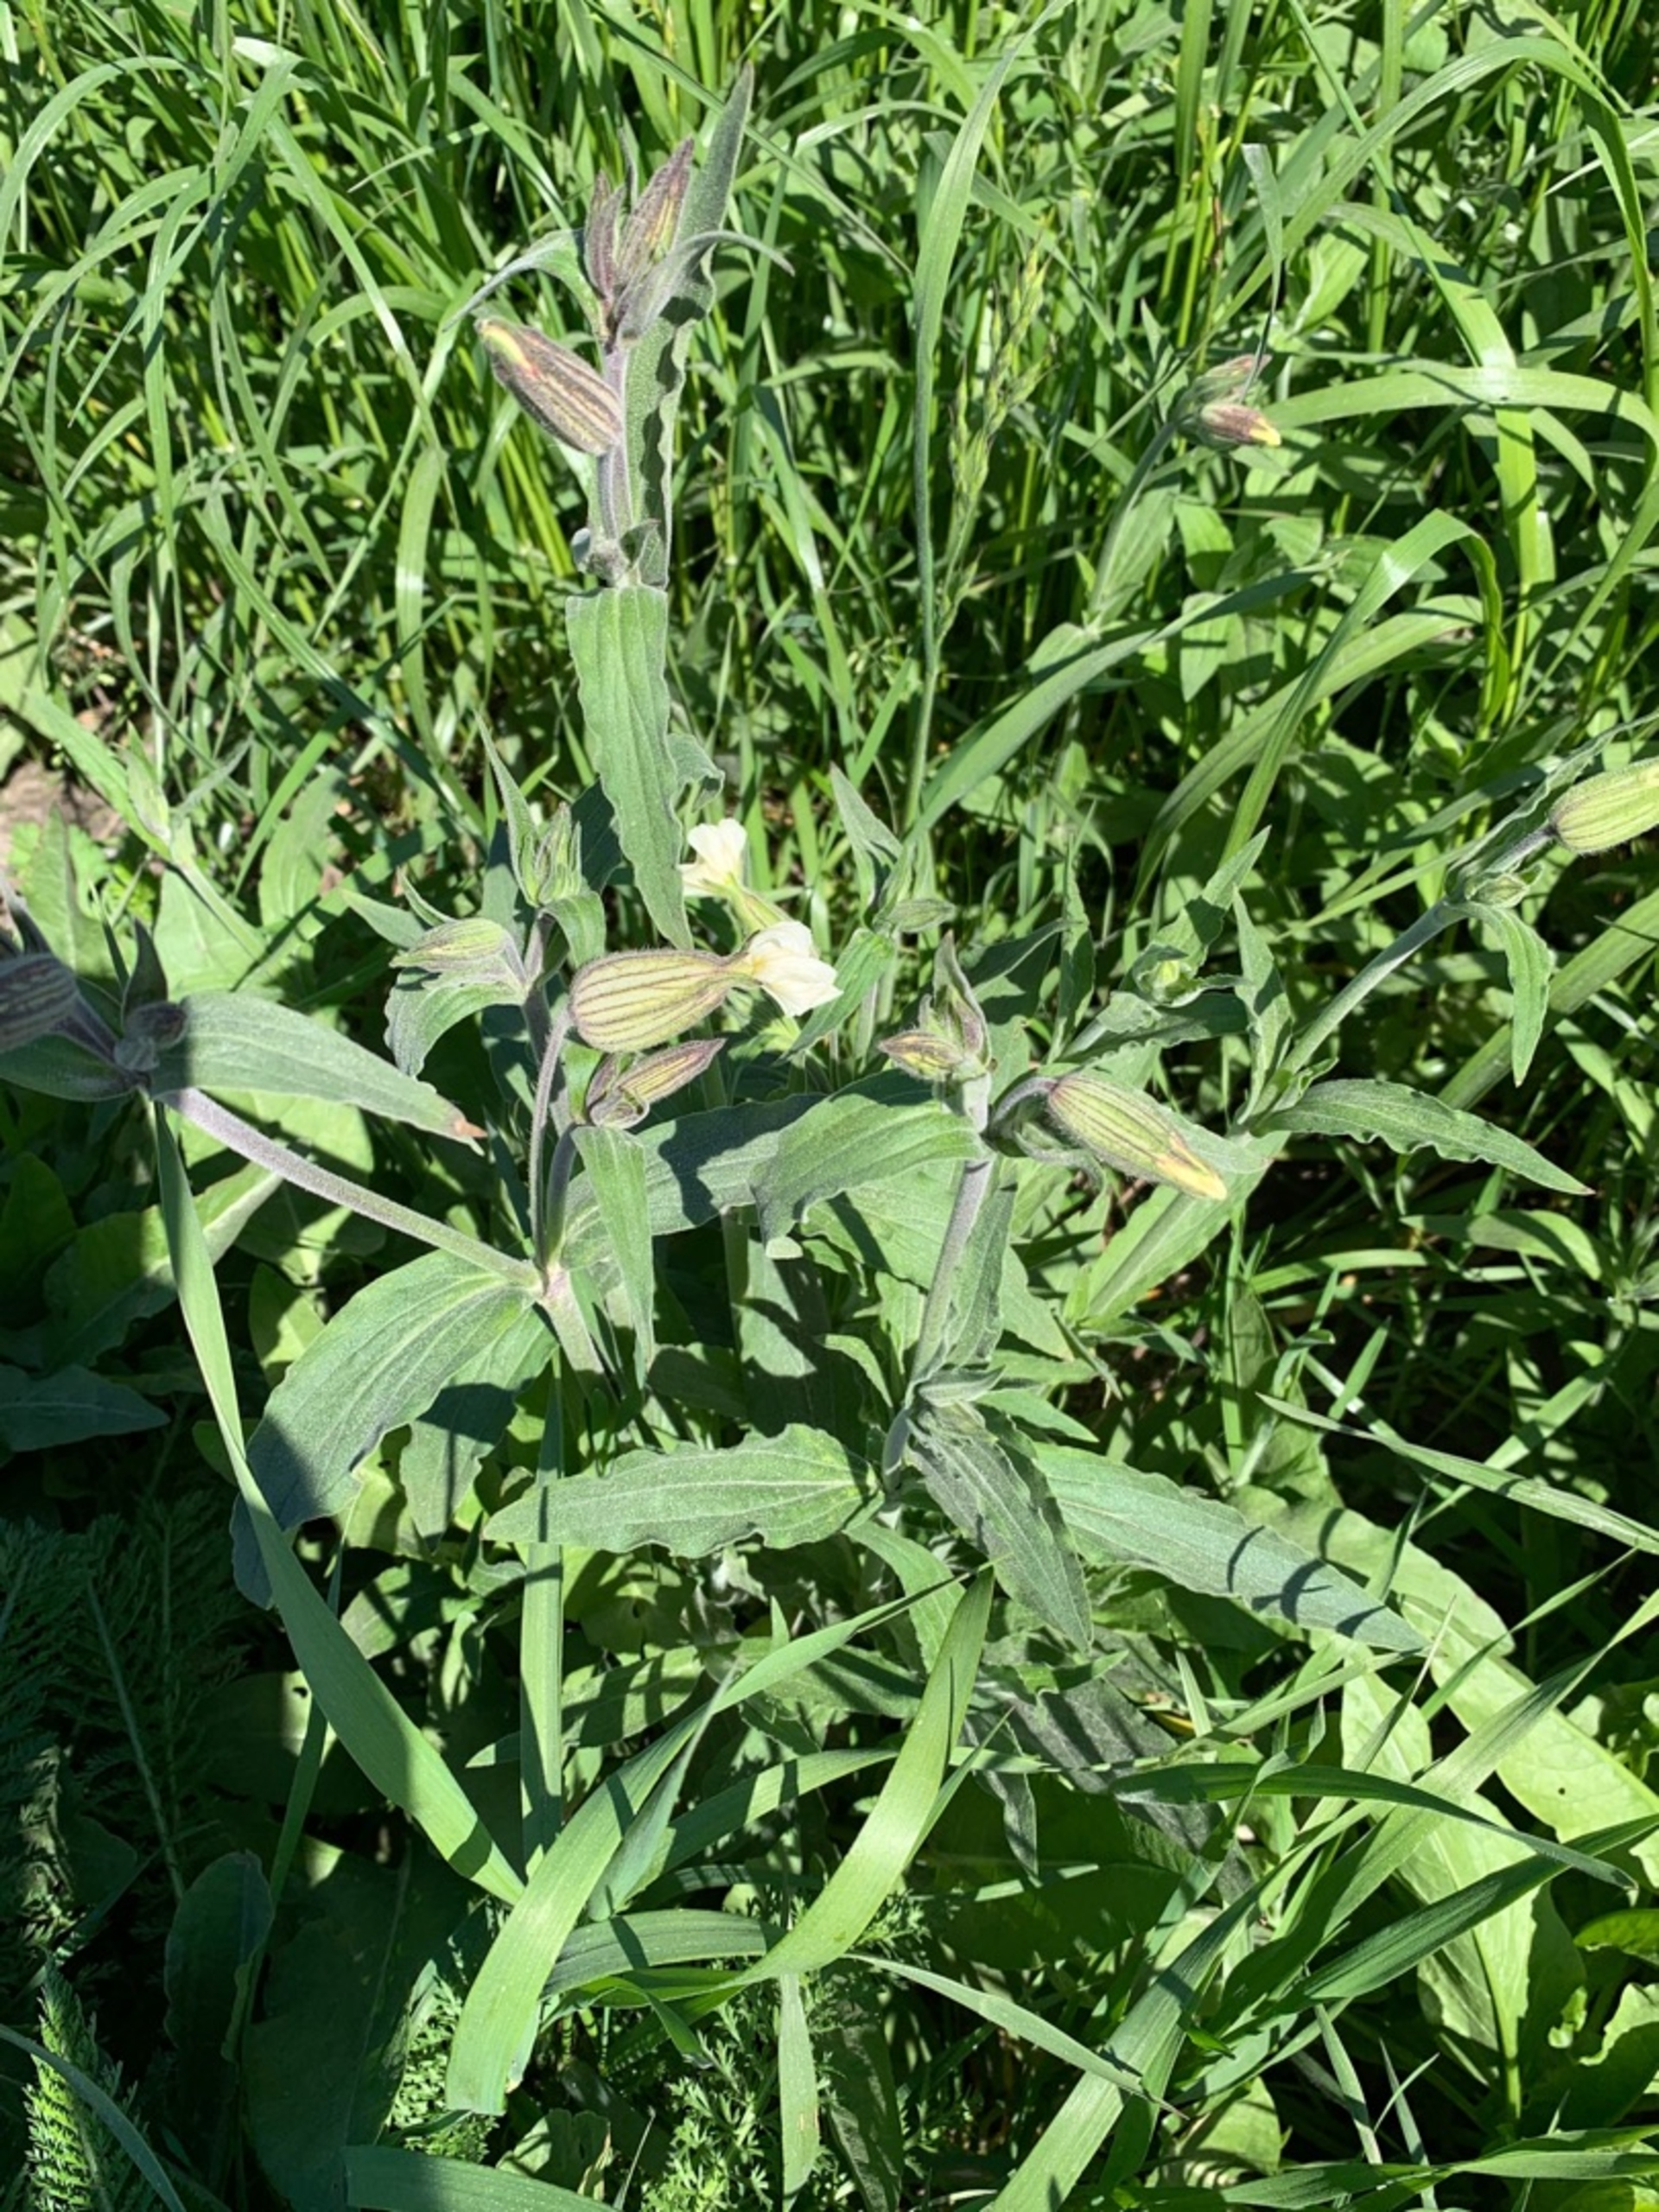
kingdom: Plantae
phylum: Tracheophyta
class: Magnoliopsida
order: Caryophyllales
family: Caryophyllaceae
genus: Silene
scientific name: Silene latifolia
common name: Aftenpragtstjerne
